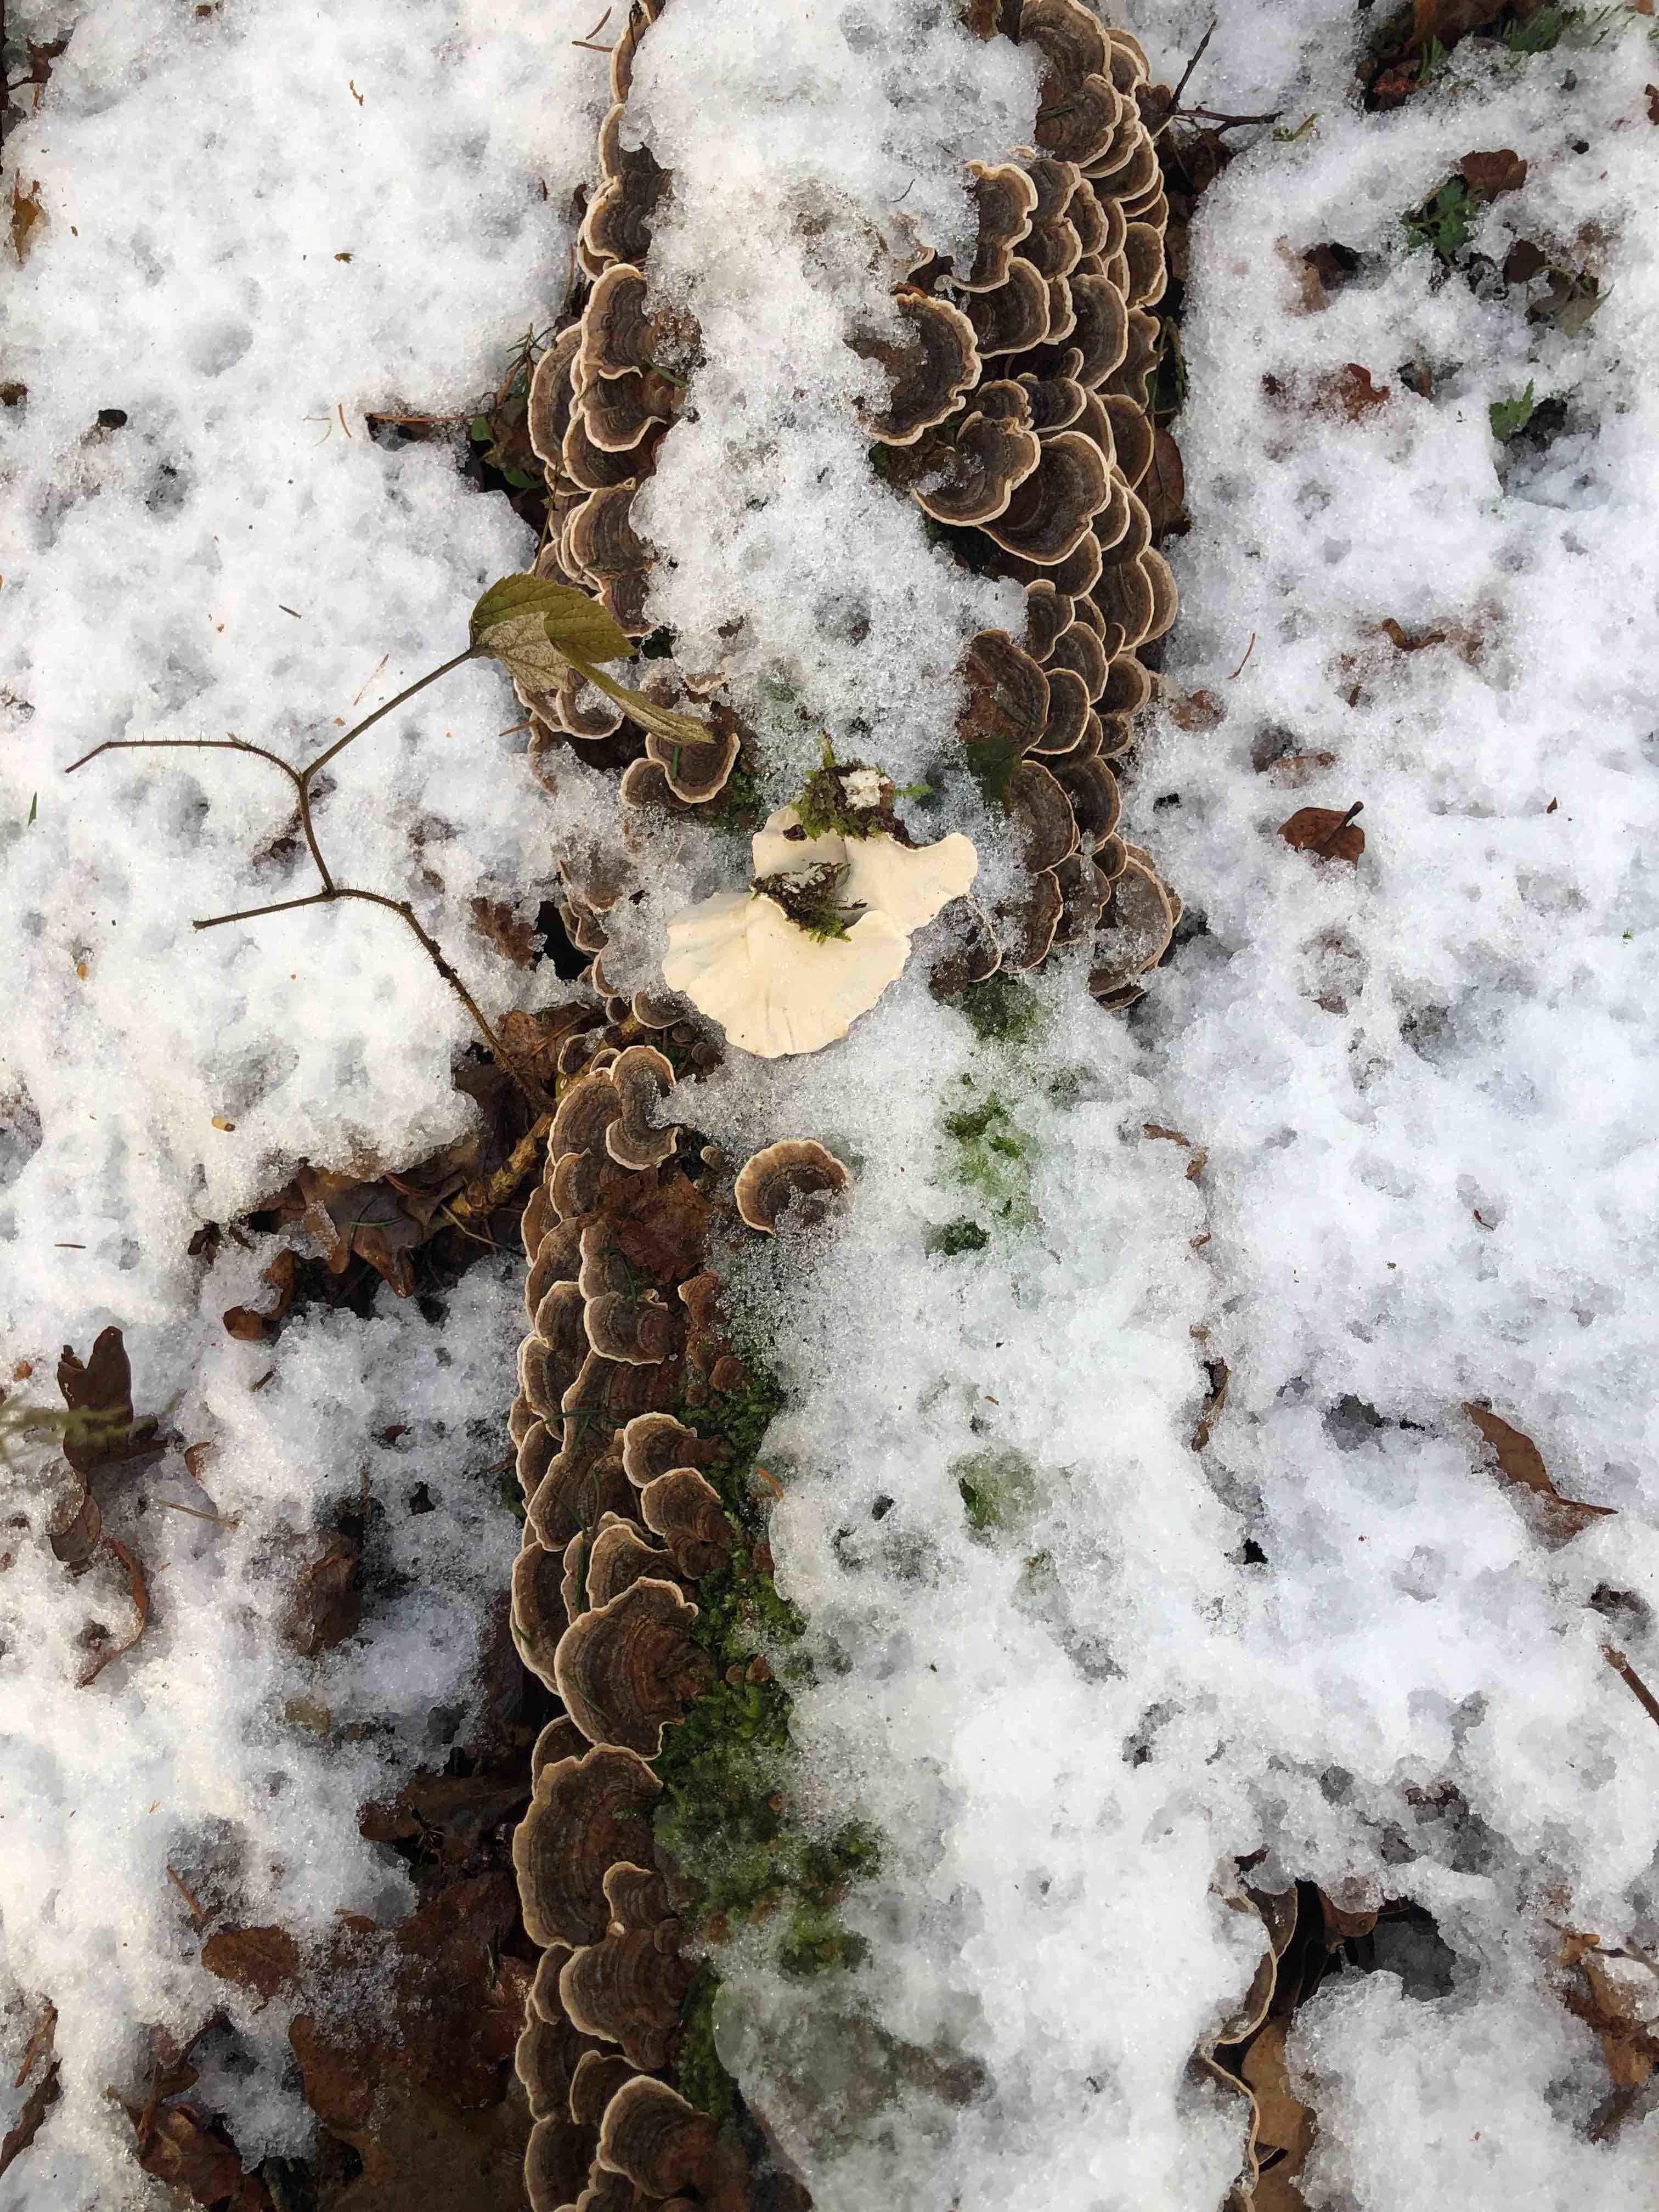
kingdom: Fungi
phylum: Basidiomycota
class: Agaricomycetes
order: Polyporales
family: Polyporaceae
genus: Trametes
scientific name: Trametes versicolor
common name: broget læderporesvamp
